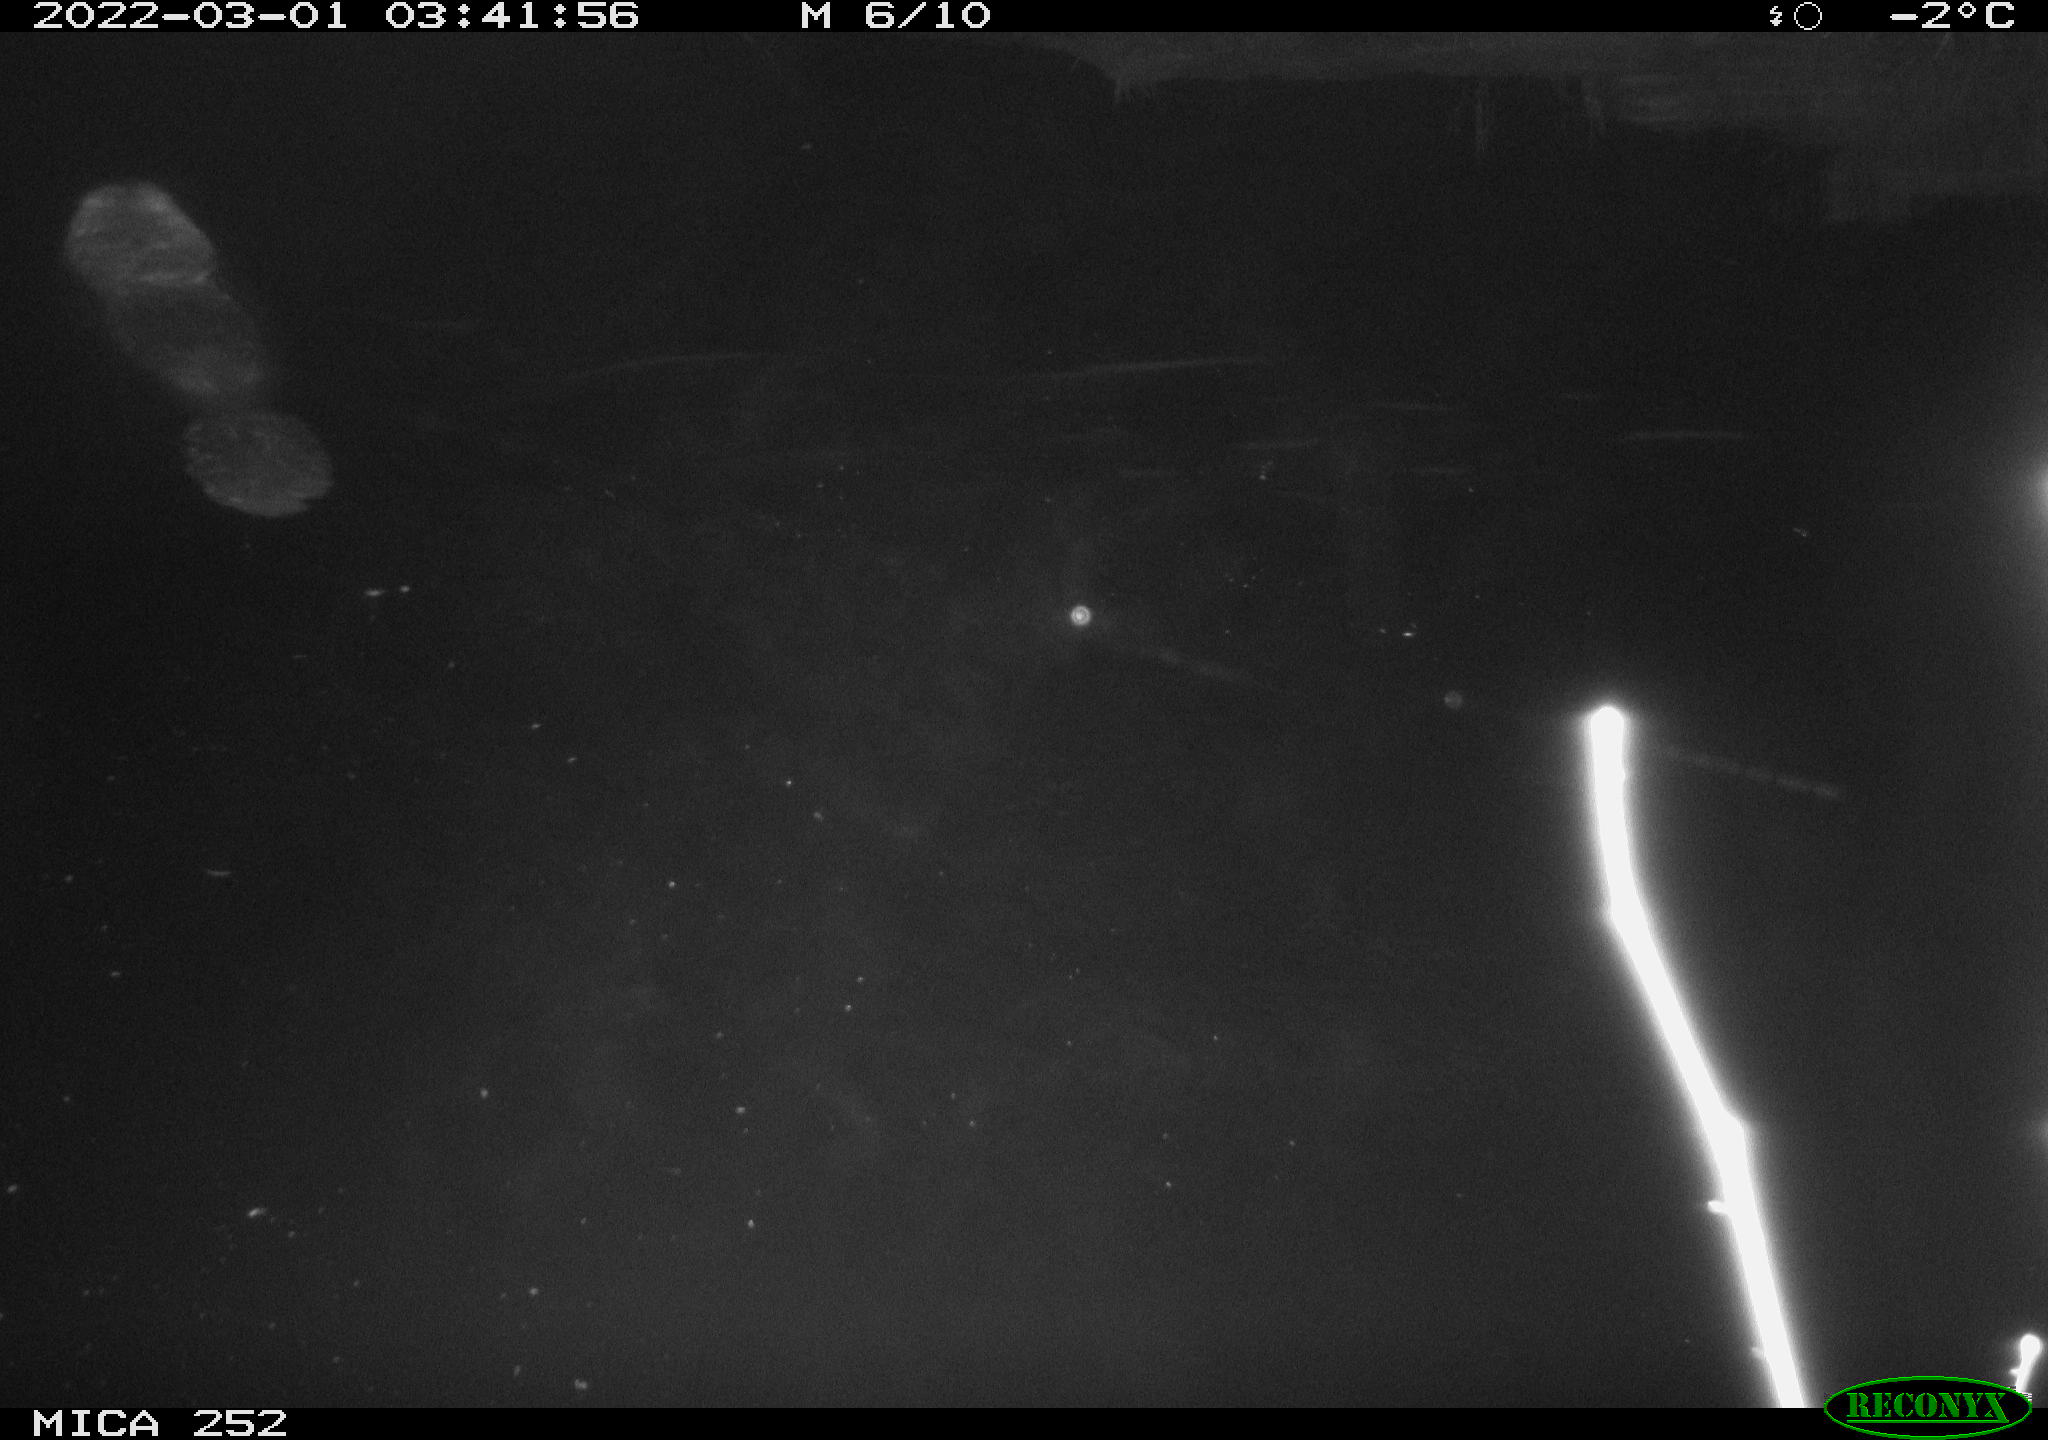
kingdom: Animalia
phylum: Chordata
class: Mammalia
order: Rodentia
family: Castoridae
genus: Castor
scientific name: Castor fiber
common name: Eurasian beaver
